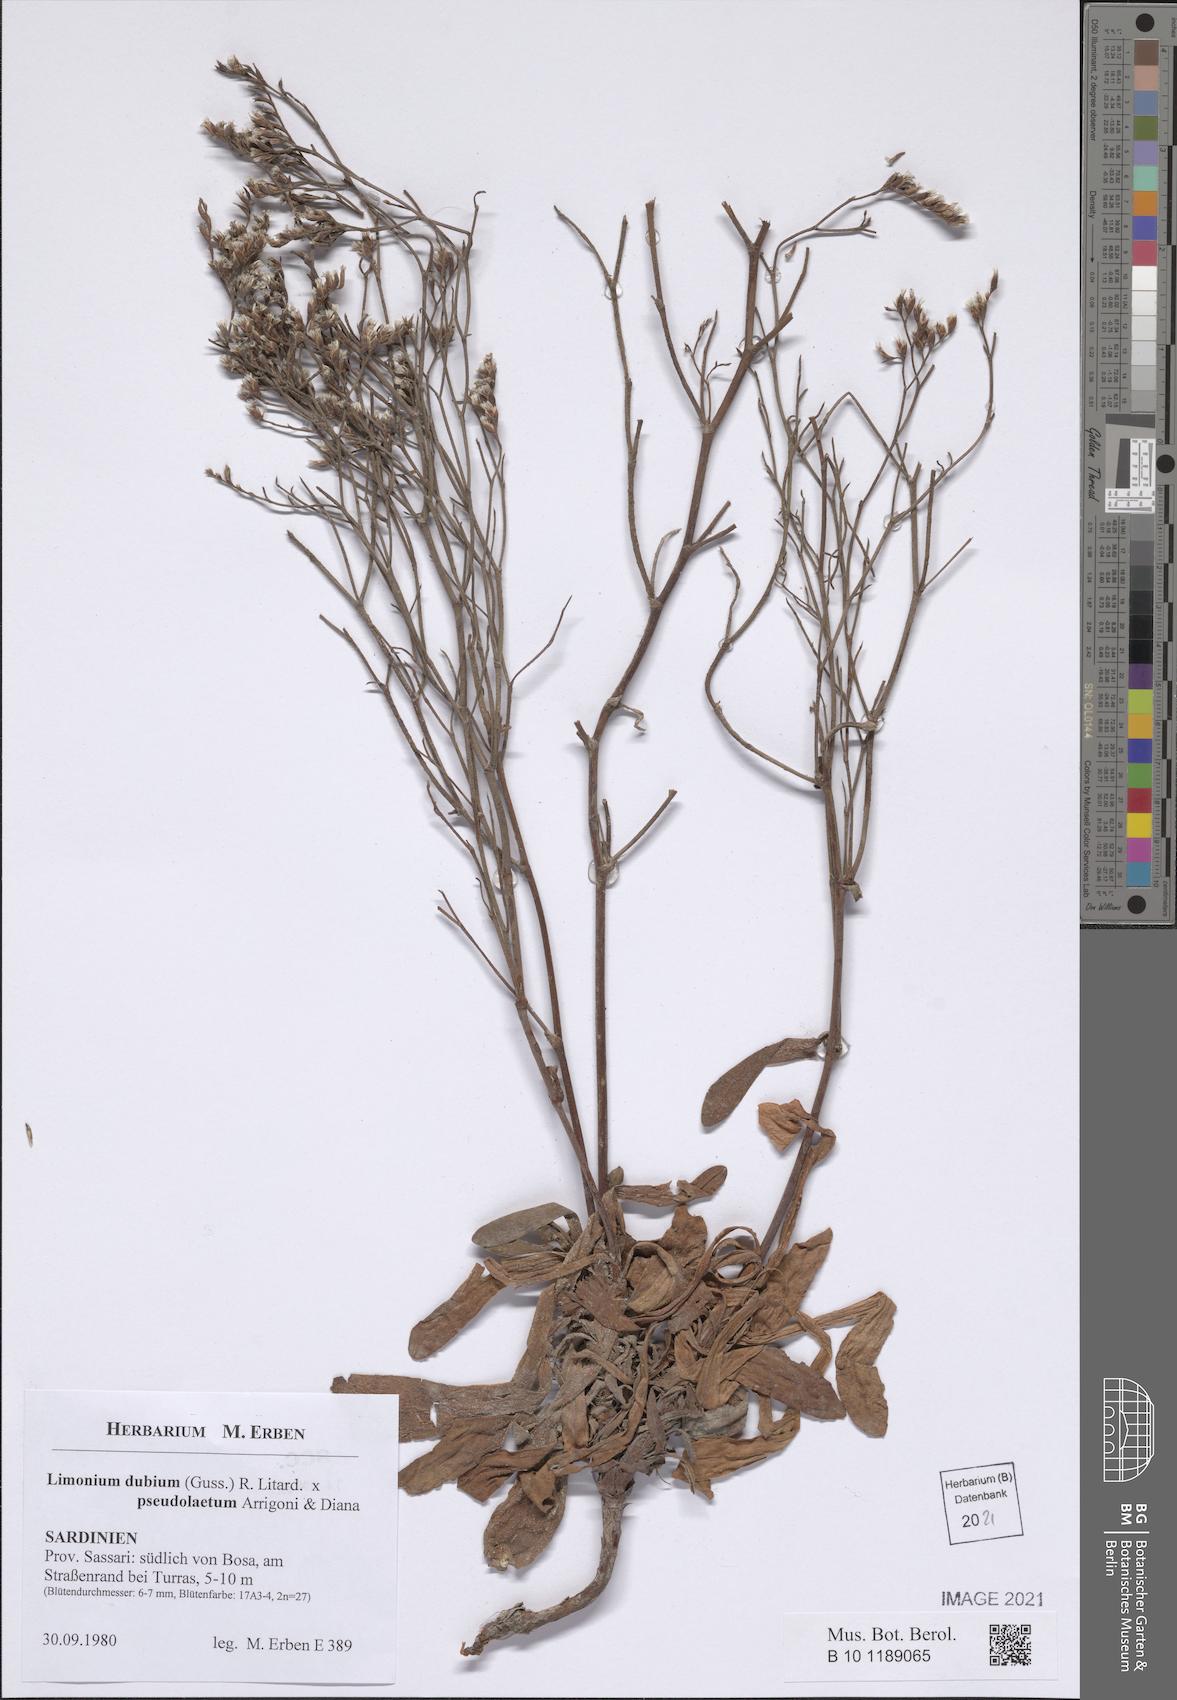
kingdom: Plantae
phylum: Tracheophyta
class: Magnoliopsida
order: Caryophyllales
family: Plumbaginaceae
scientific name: Plumbaginaceae
